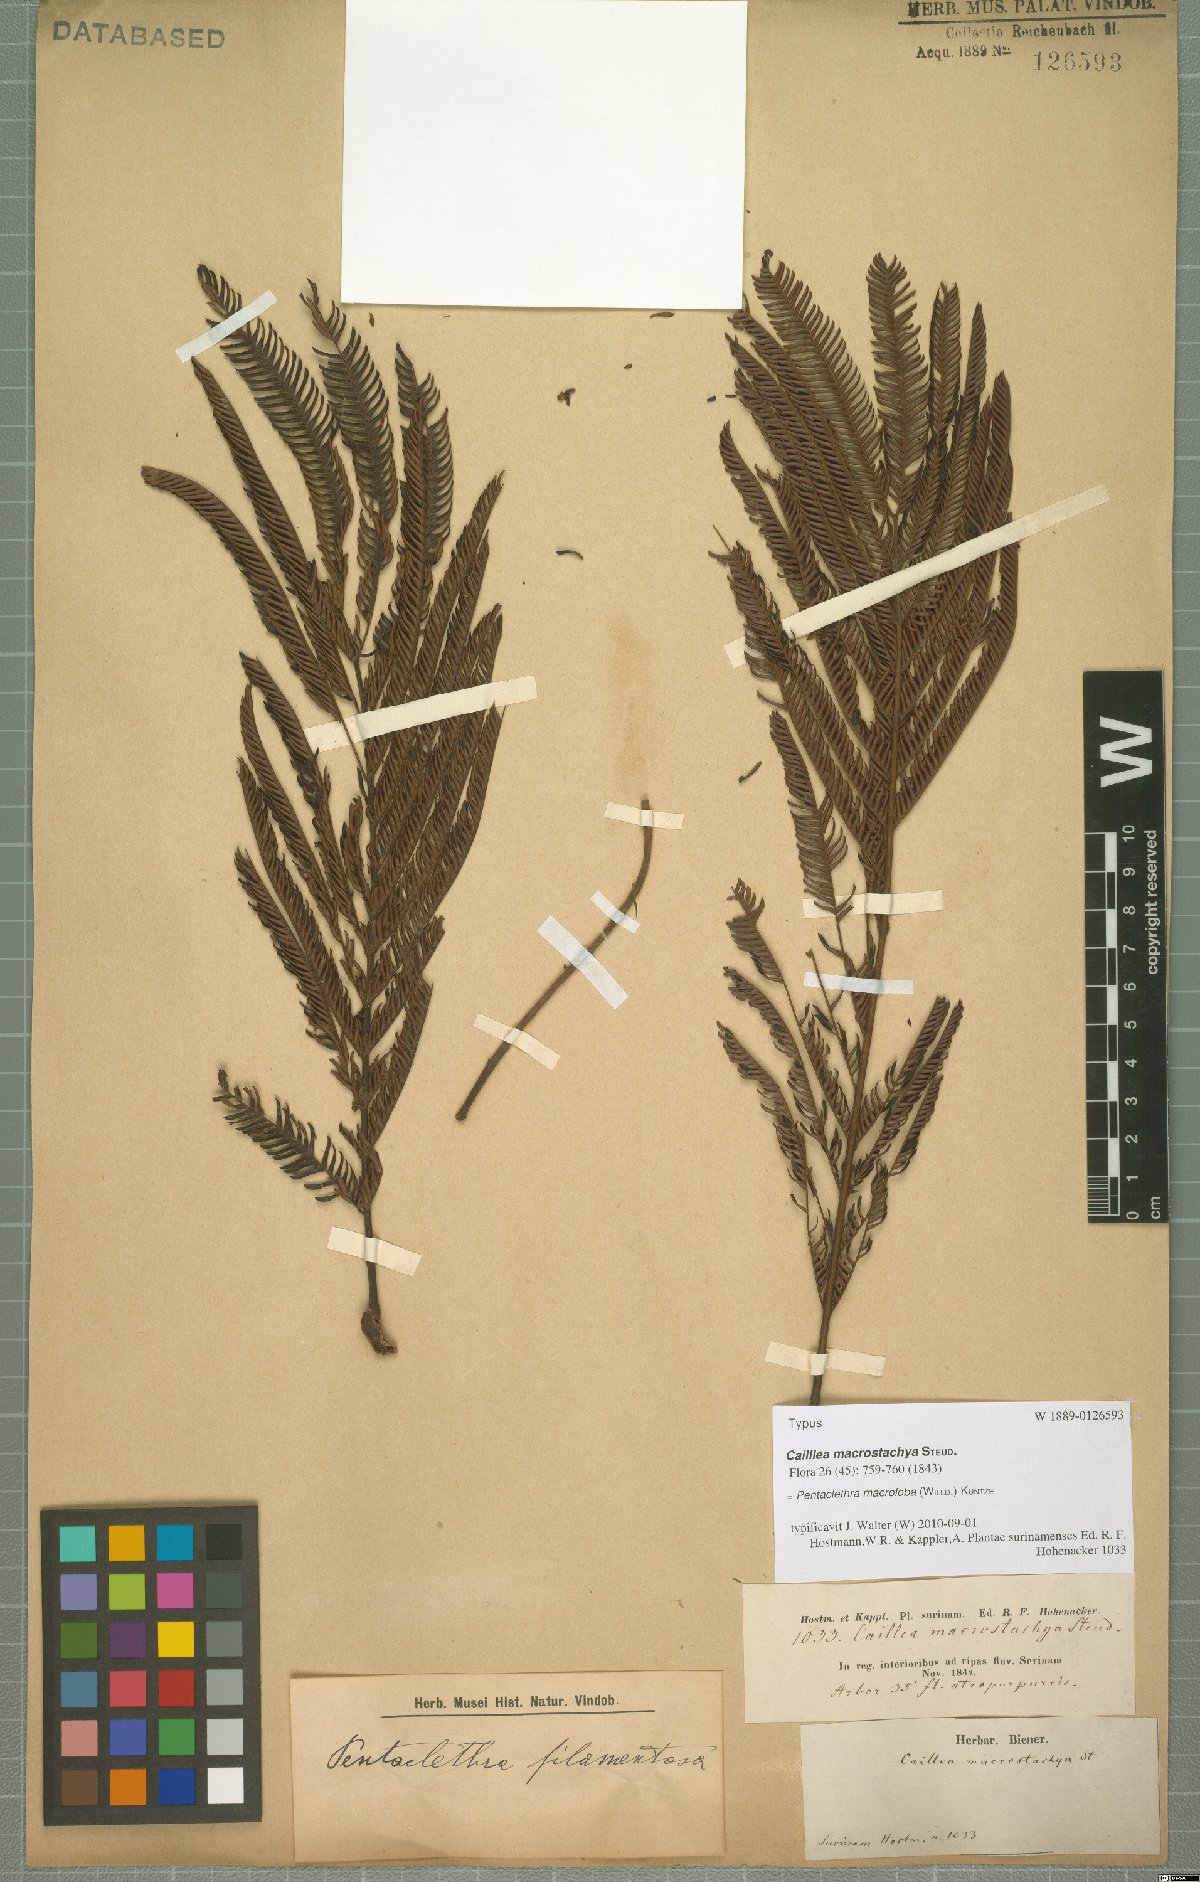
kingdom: Plantae
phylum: Tracheophyta
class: Magnoliopsida
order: Fabales
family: Fabaceae
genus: Pentaclethra
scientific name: Pentaclethra macroloba
